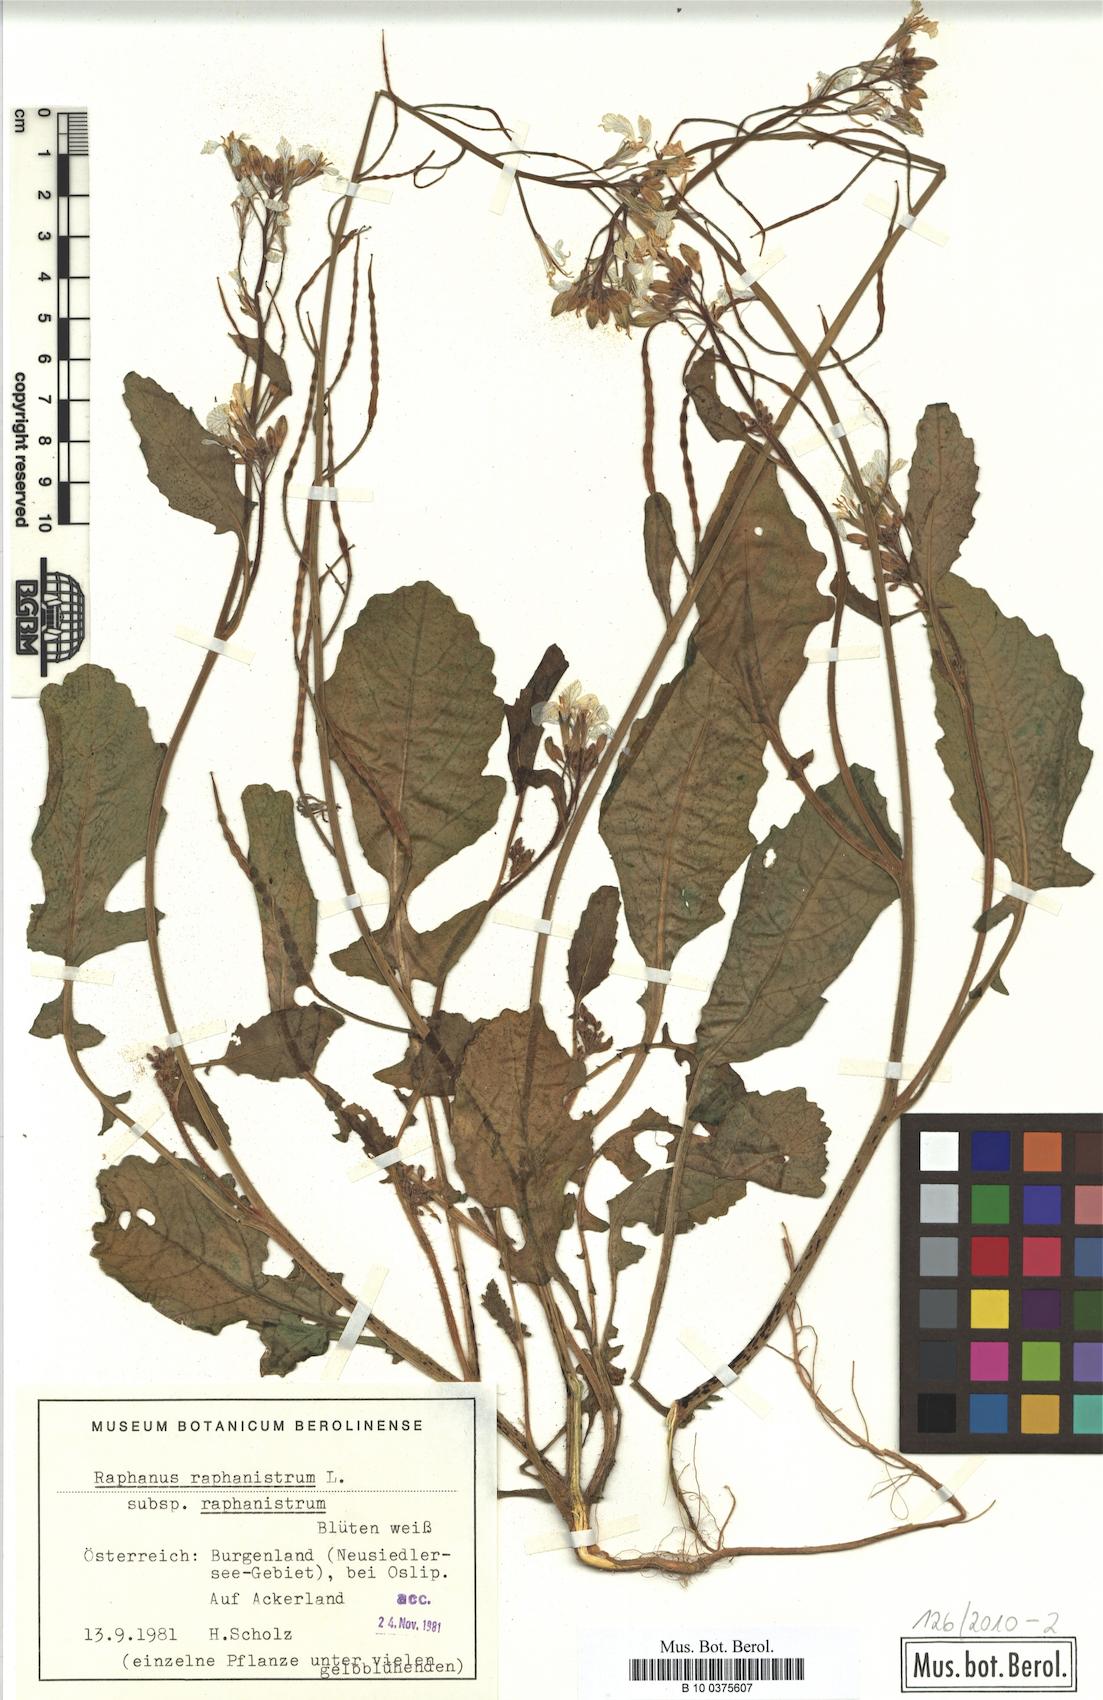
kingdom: Plantae
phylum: Tracheophyta
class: Magnoliopsida
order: Brassicales
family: Brassicaceae
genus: Raphanus
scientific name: Raphanus raphanistrum
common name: Wild radish
